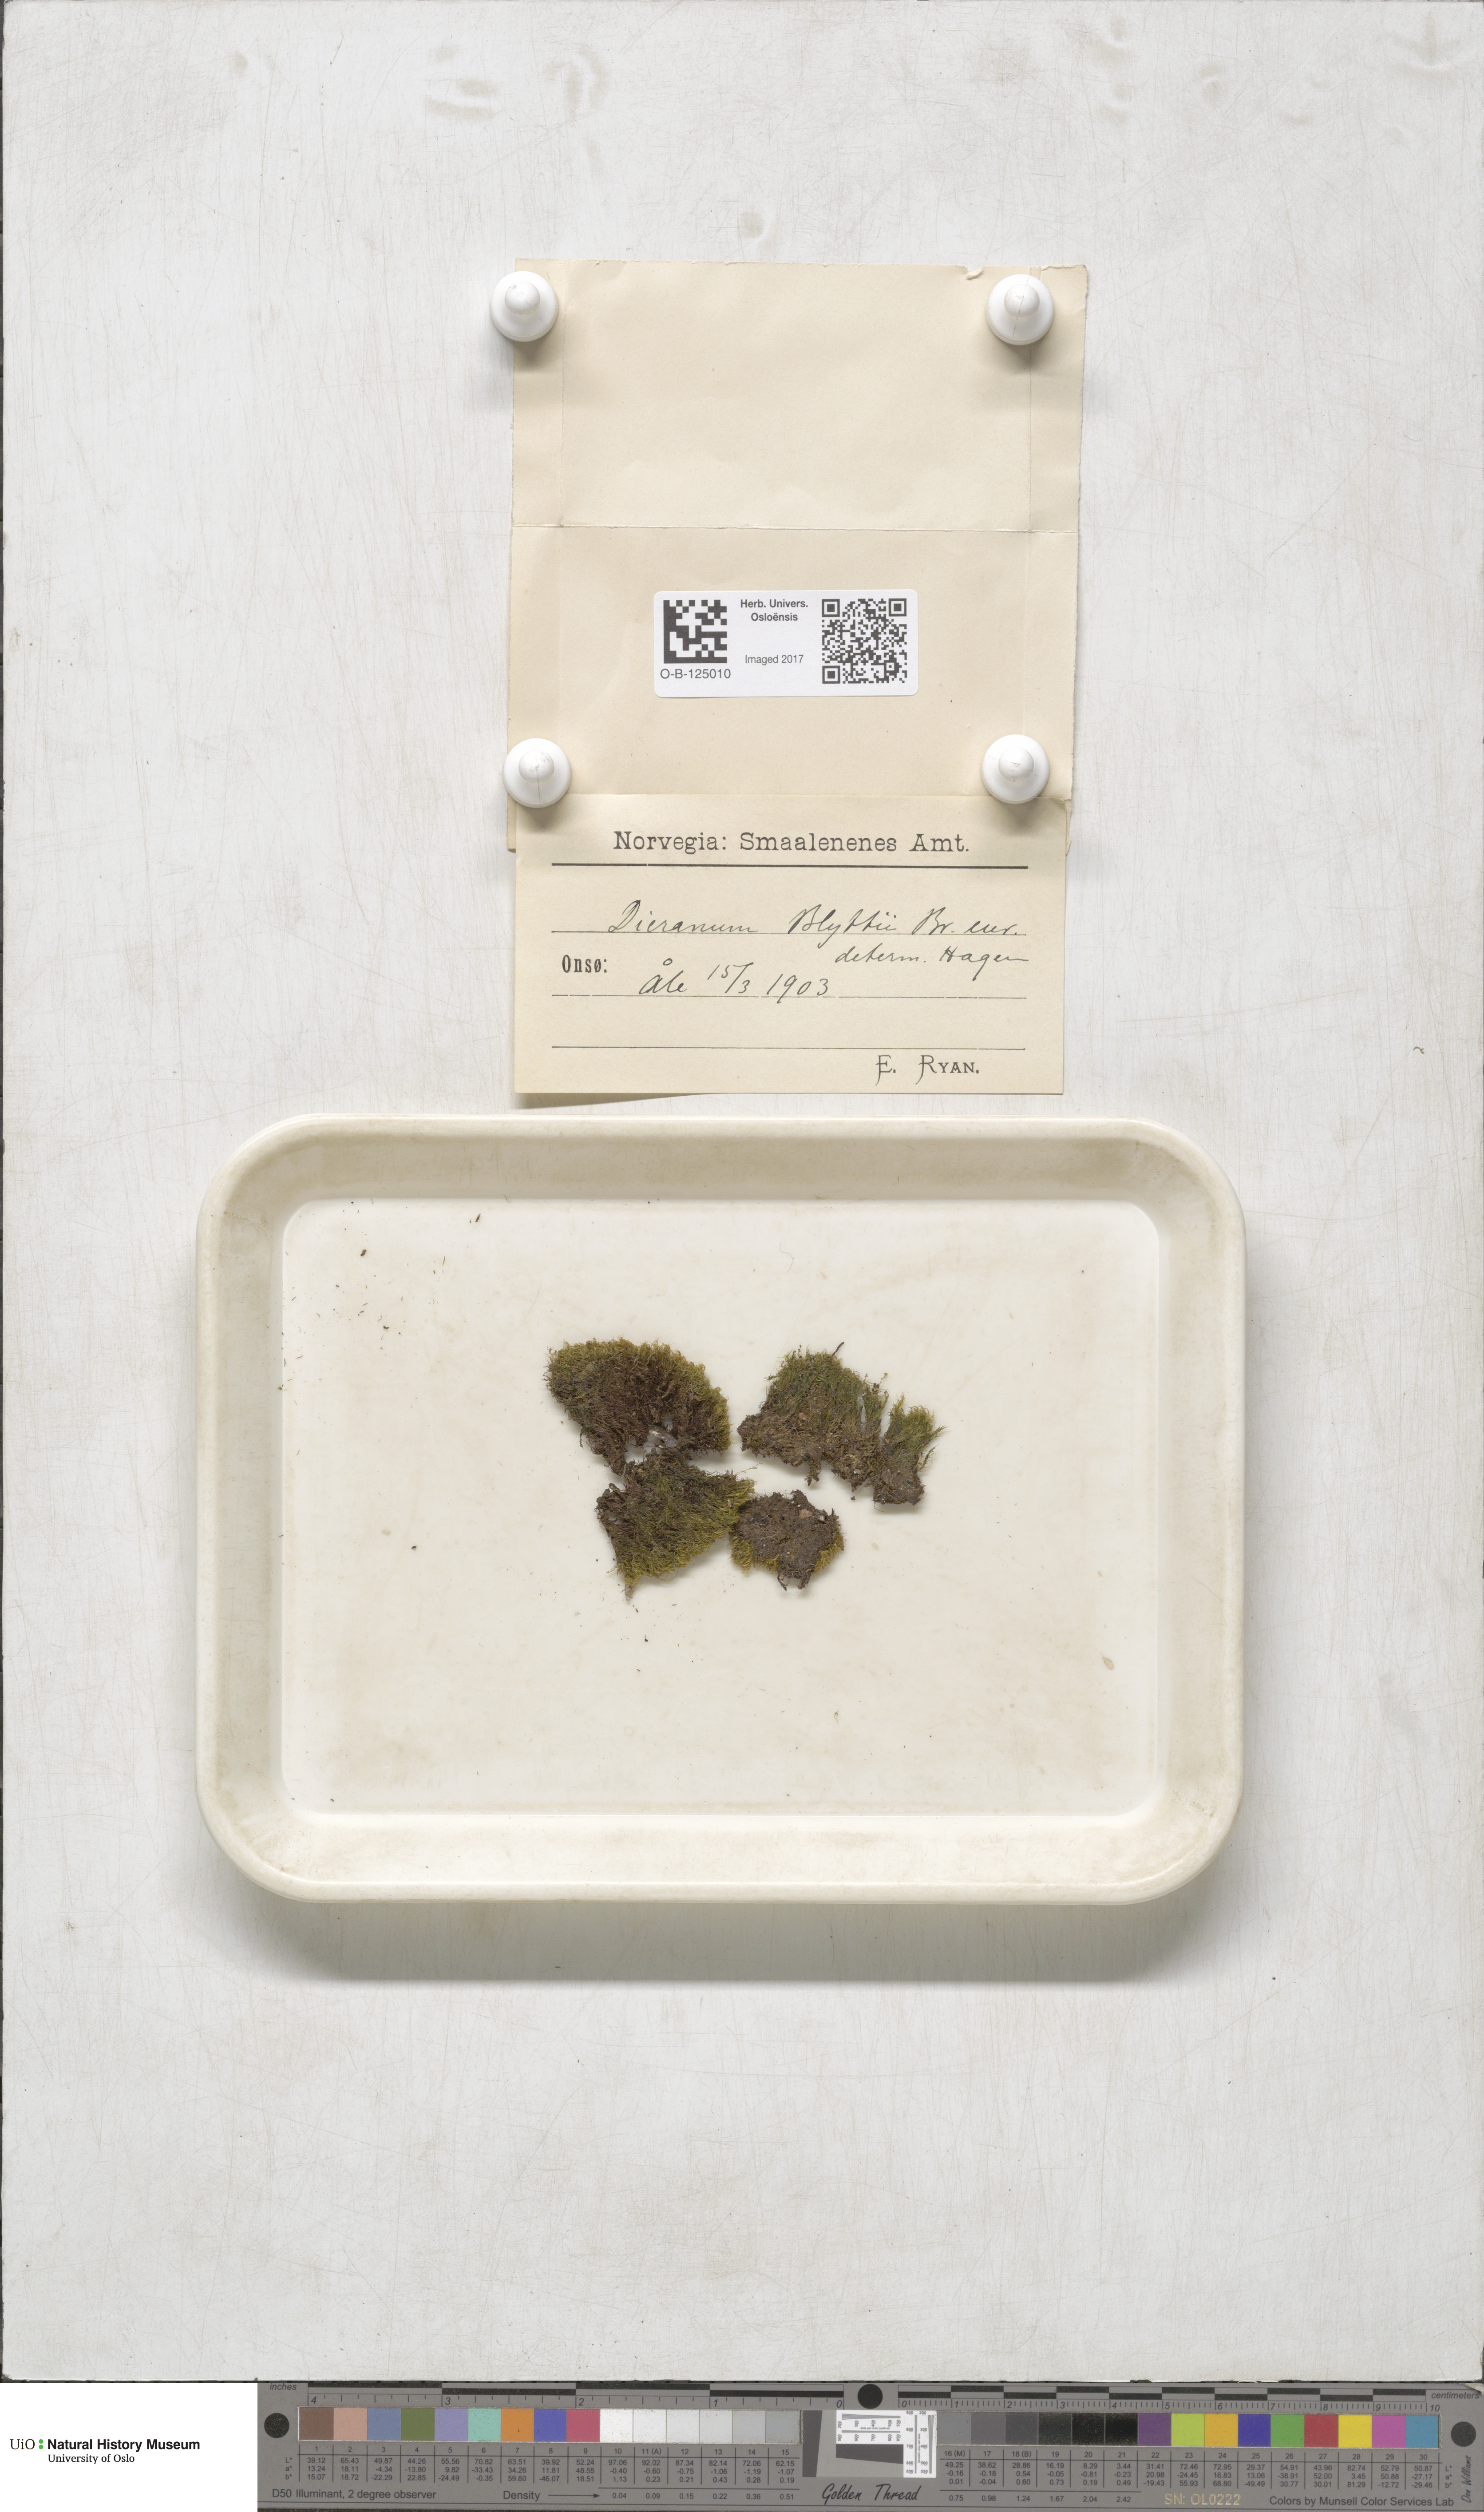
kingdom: Plantae
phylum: Bryophyta
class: Bryopsida
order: Dicranales
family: Rhabdoweisiaceae
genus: Arctoa
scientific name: Arctoa blyttii
